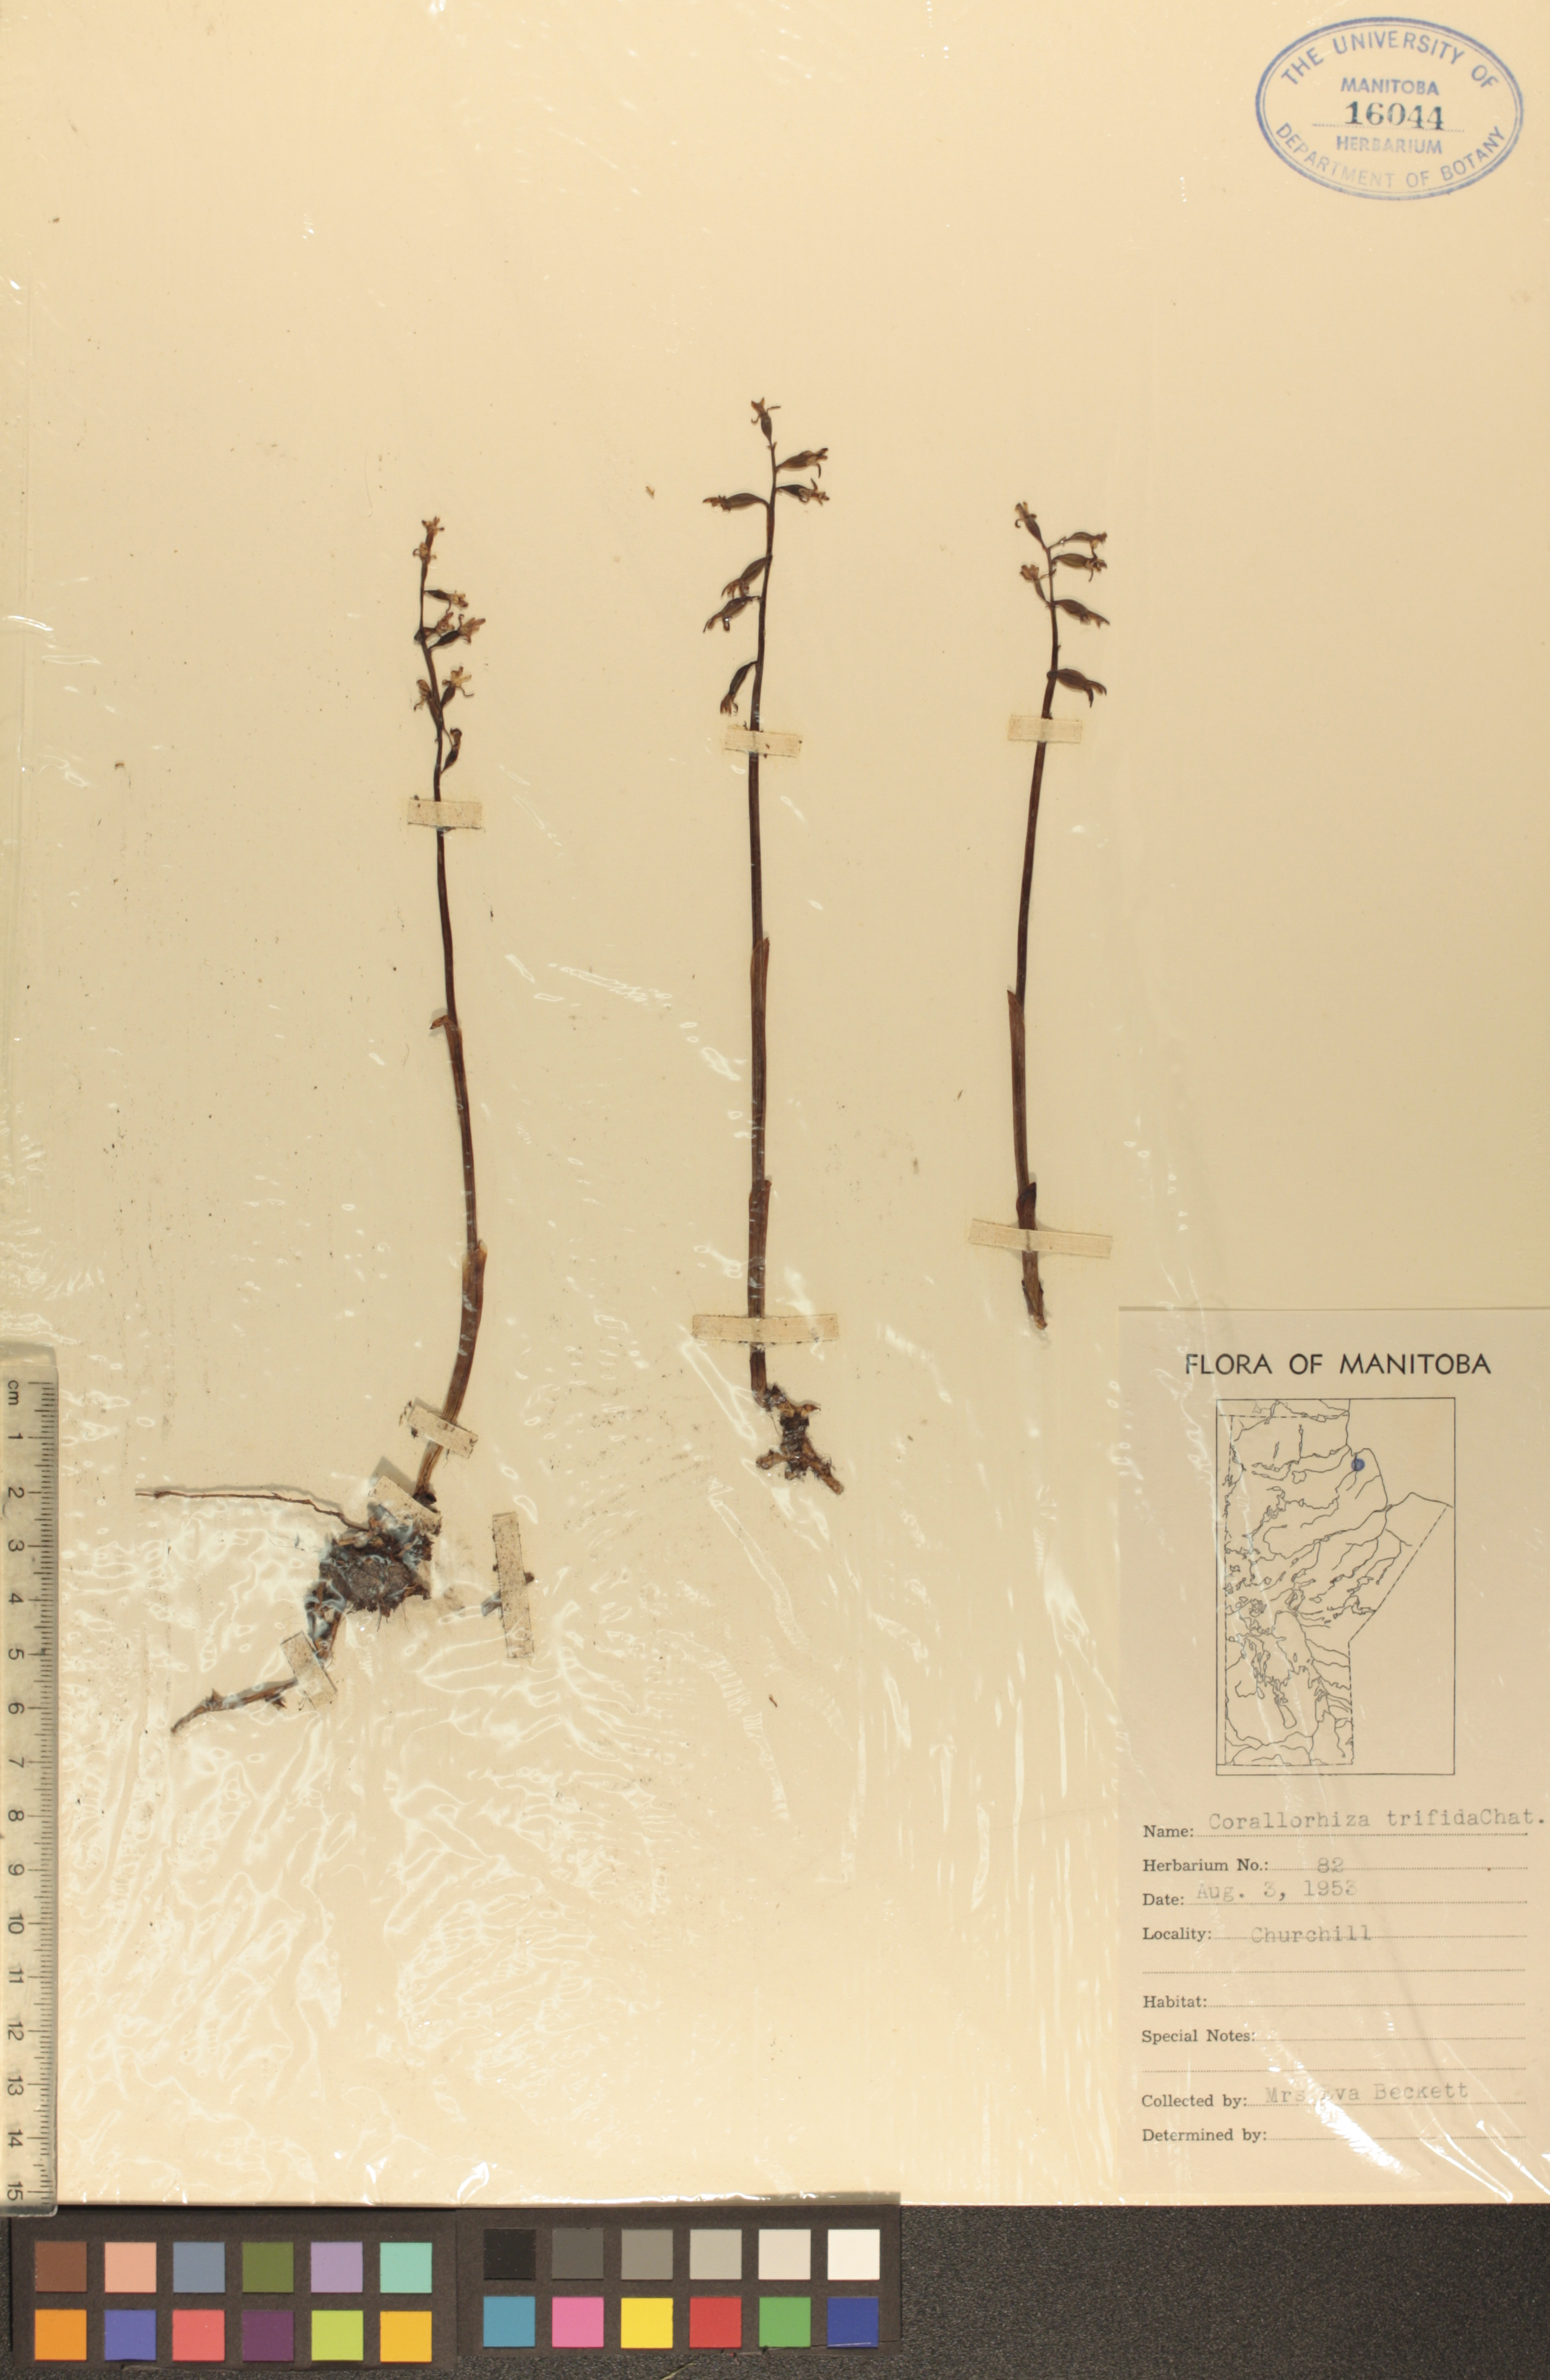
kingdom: Plantae
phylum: Tracheophyta
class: Liliopsida
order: Asparagales
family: Orchidaceae
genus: Corallorhiza
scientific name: Corallorhiza trifida
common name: Yellow coralroot
